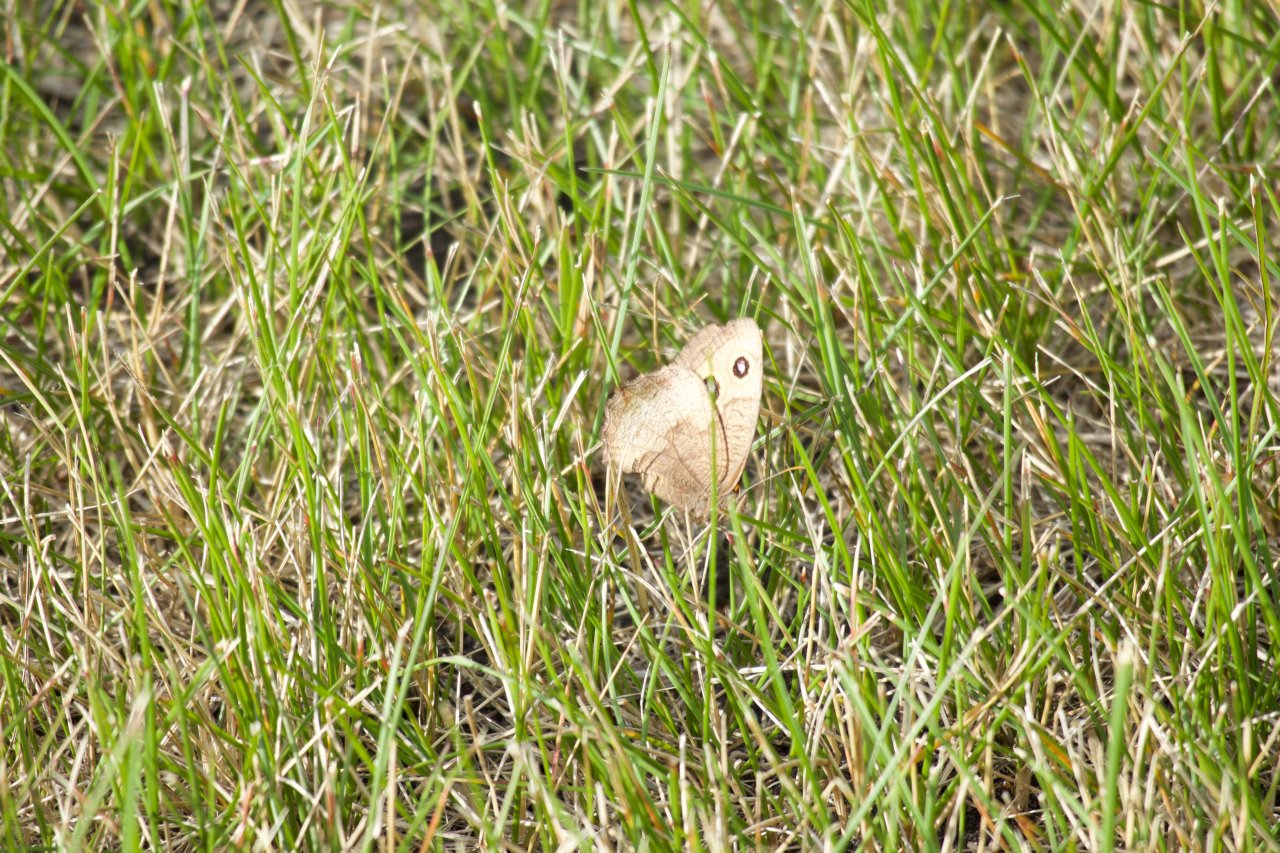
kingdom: Animalia
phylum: Arthropoda
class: Insecta
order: Lepidoptera
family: Nymphalidae
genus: Cercyonis
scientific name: Cercyonis pegala
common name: Common Wood-Nymph
